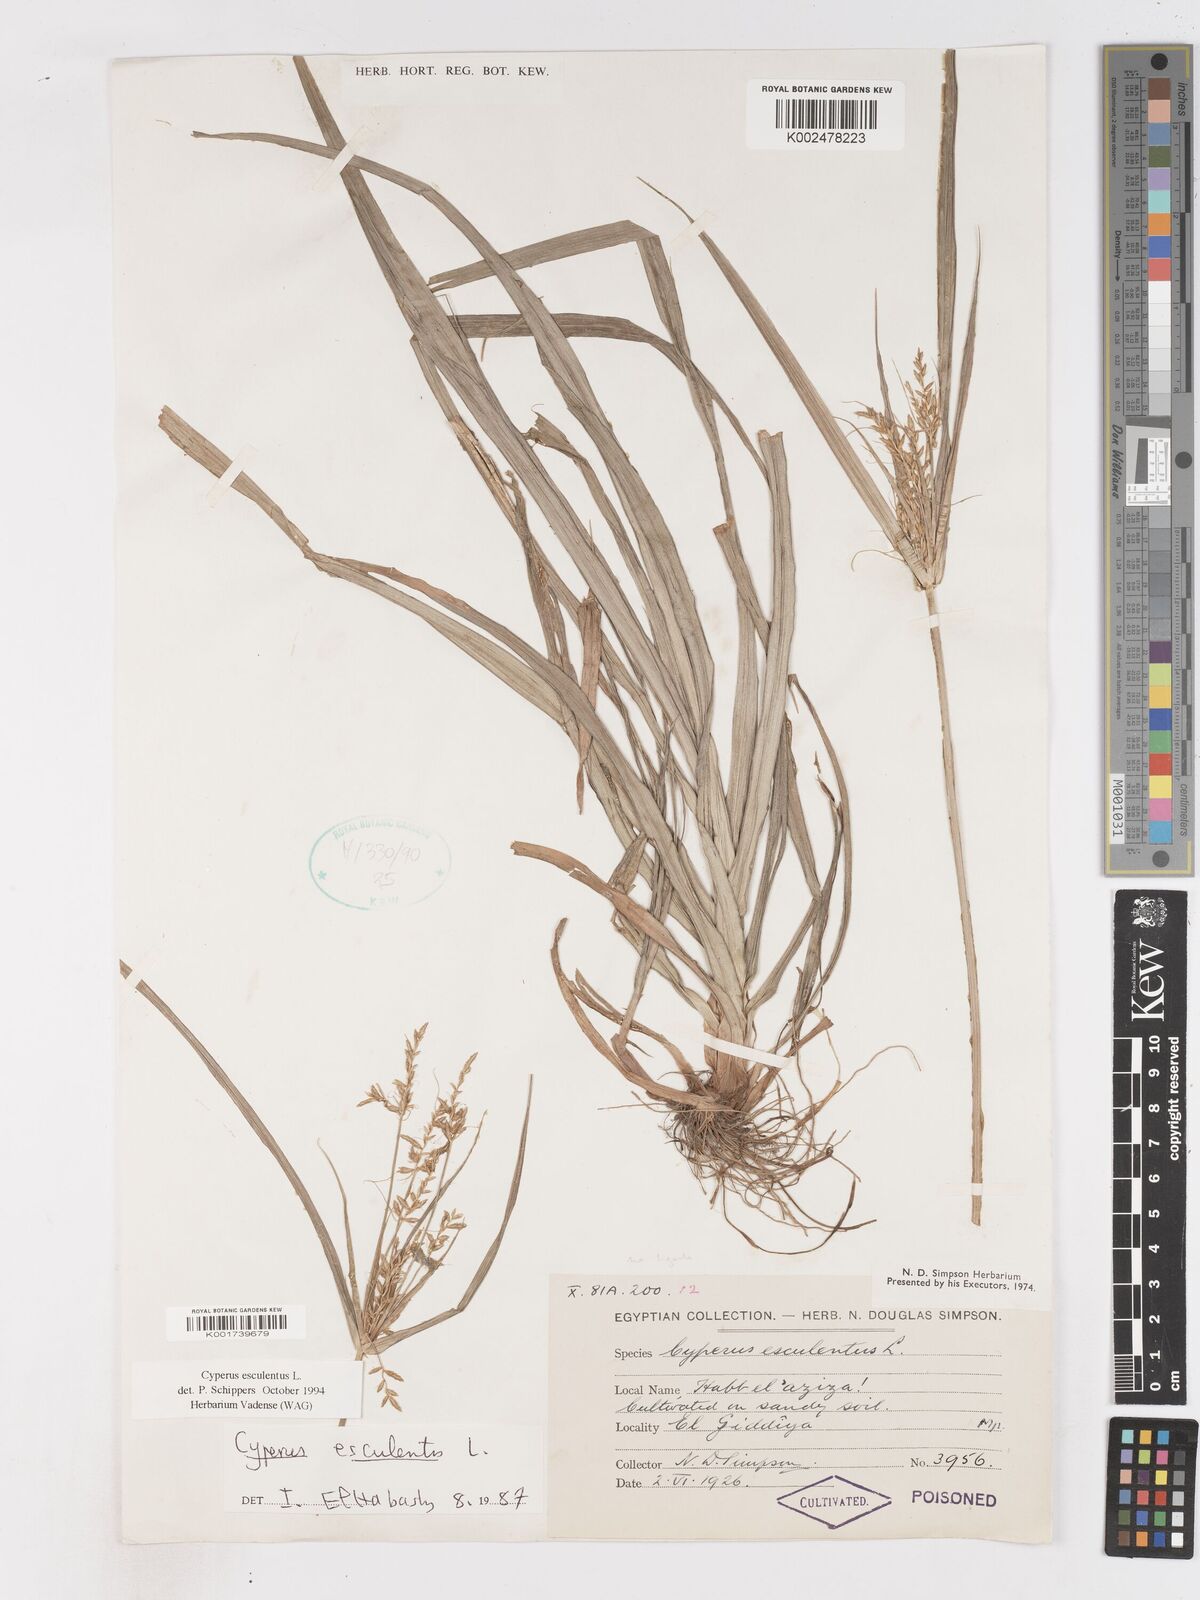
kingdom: Plantae
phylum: Tracheophyta
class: Liliopsida
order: Poales
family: Cyperaceae
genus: Cyperus
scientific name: Cyperus esculentus
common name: Yellow nutsedge
